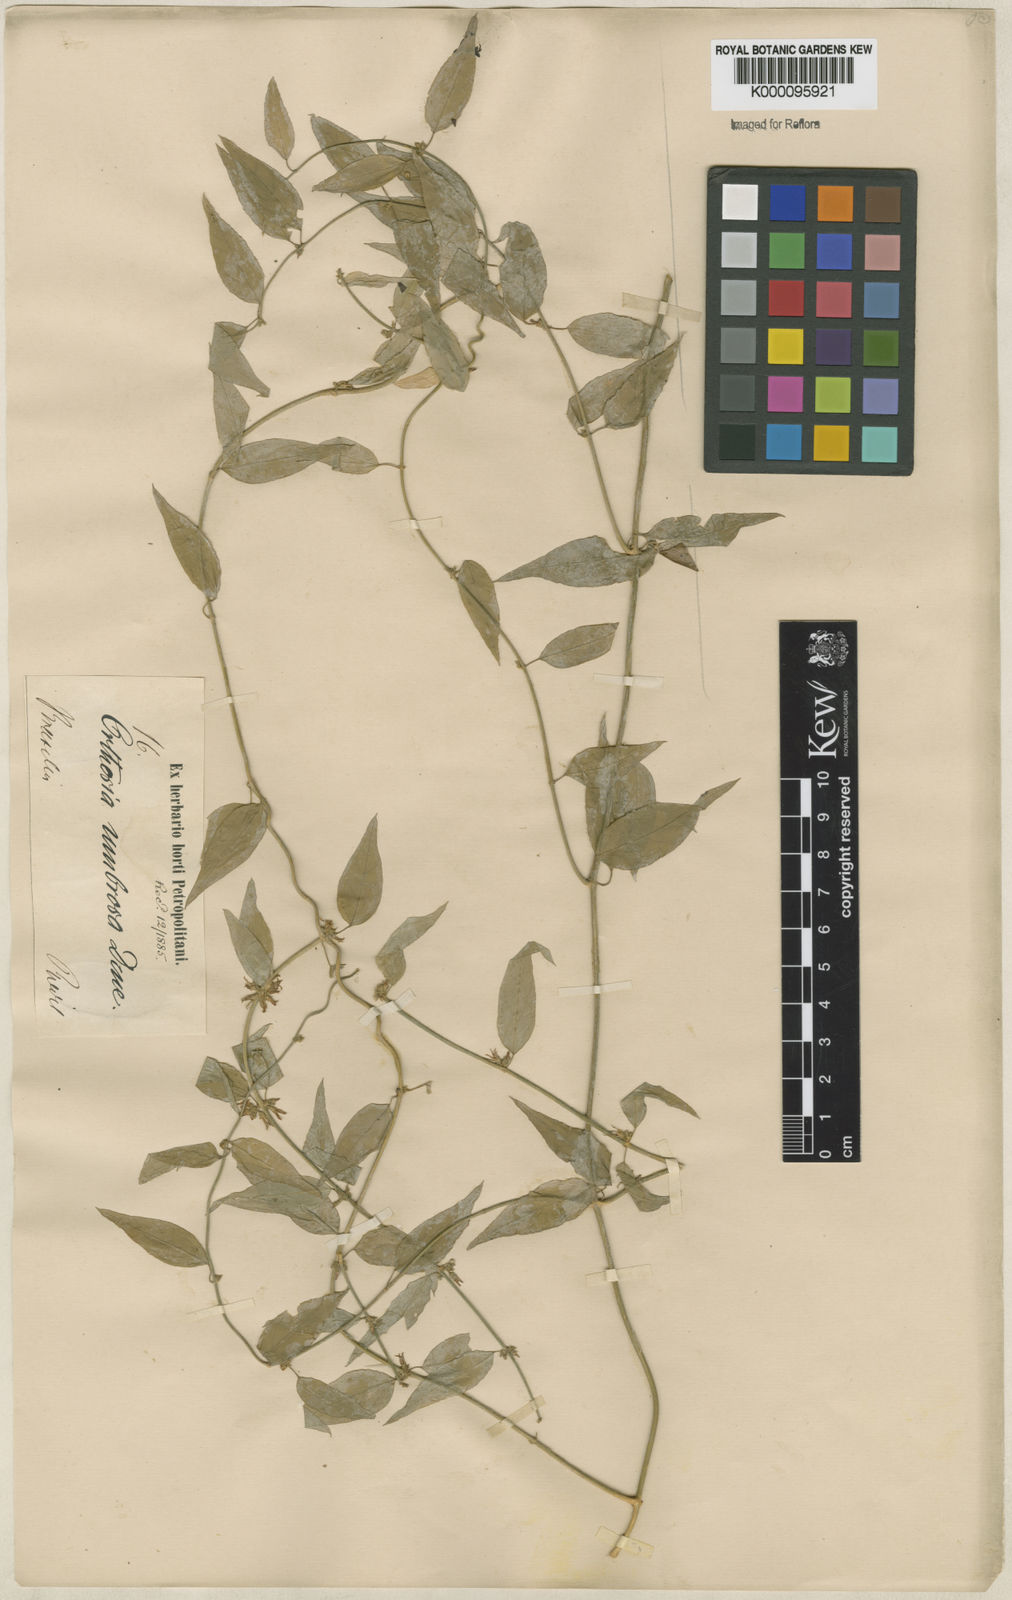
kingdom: Plantae
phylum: Tracheophyta
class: Magnoliopsida
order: Gentianales
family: Apocynaceae
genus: Orthosia
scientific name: Orthosia umbrosa
